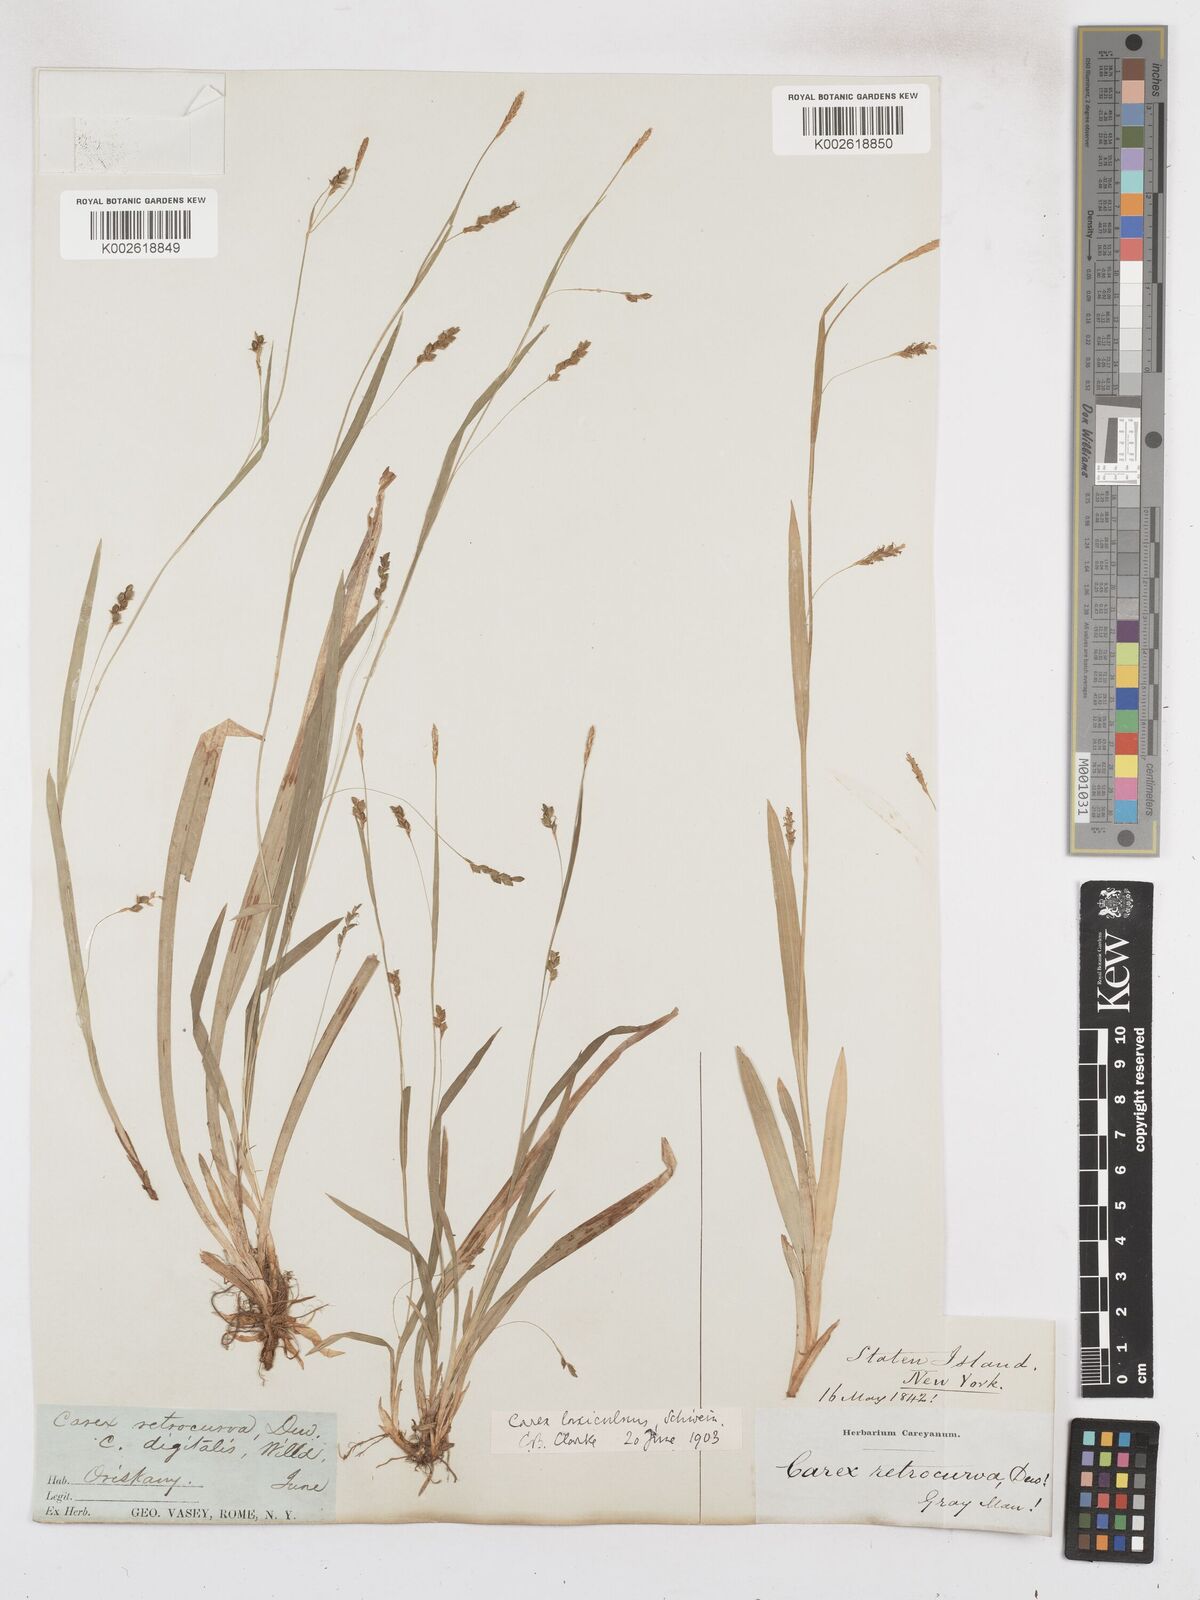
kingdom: Plantae
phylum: Tracheophyta
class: Liliopsida
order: Poales
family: Cyperaceae
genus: Carex
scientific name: Carex laxiculmis
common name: Spreading sedge
